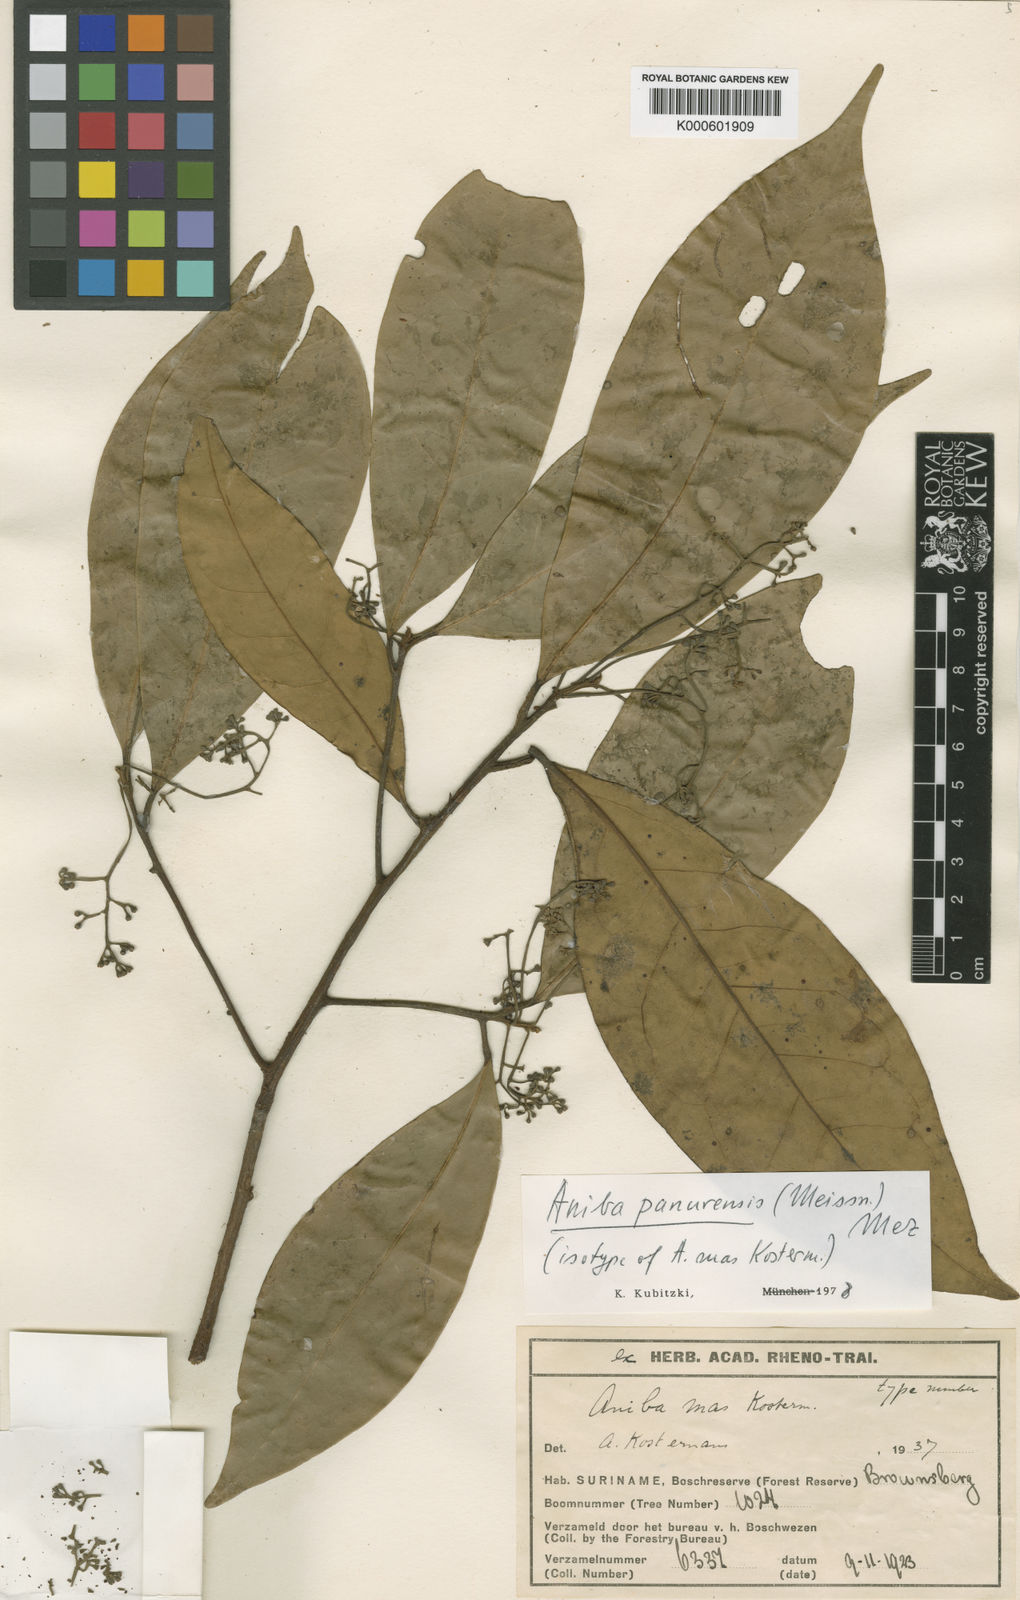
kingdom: Plantae
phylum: Tracheophyta
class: Magnoliopsida
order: Laurales
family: Lauraceae
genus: Aniba
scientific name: Aniba panurensis
